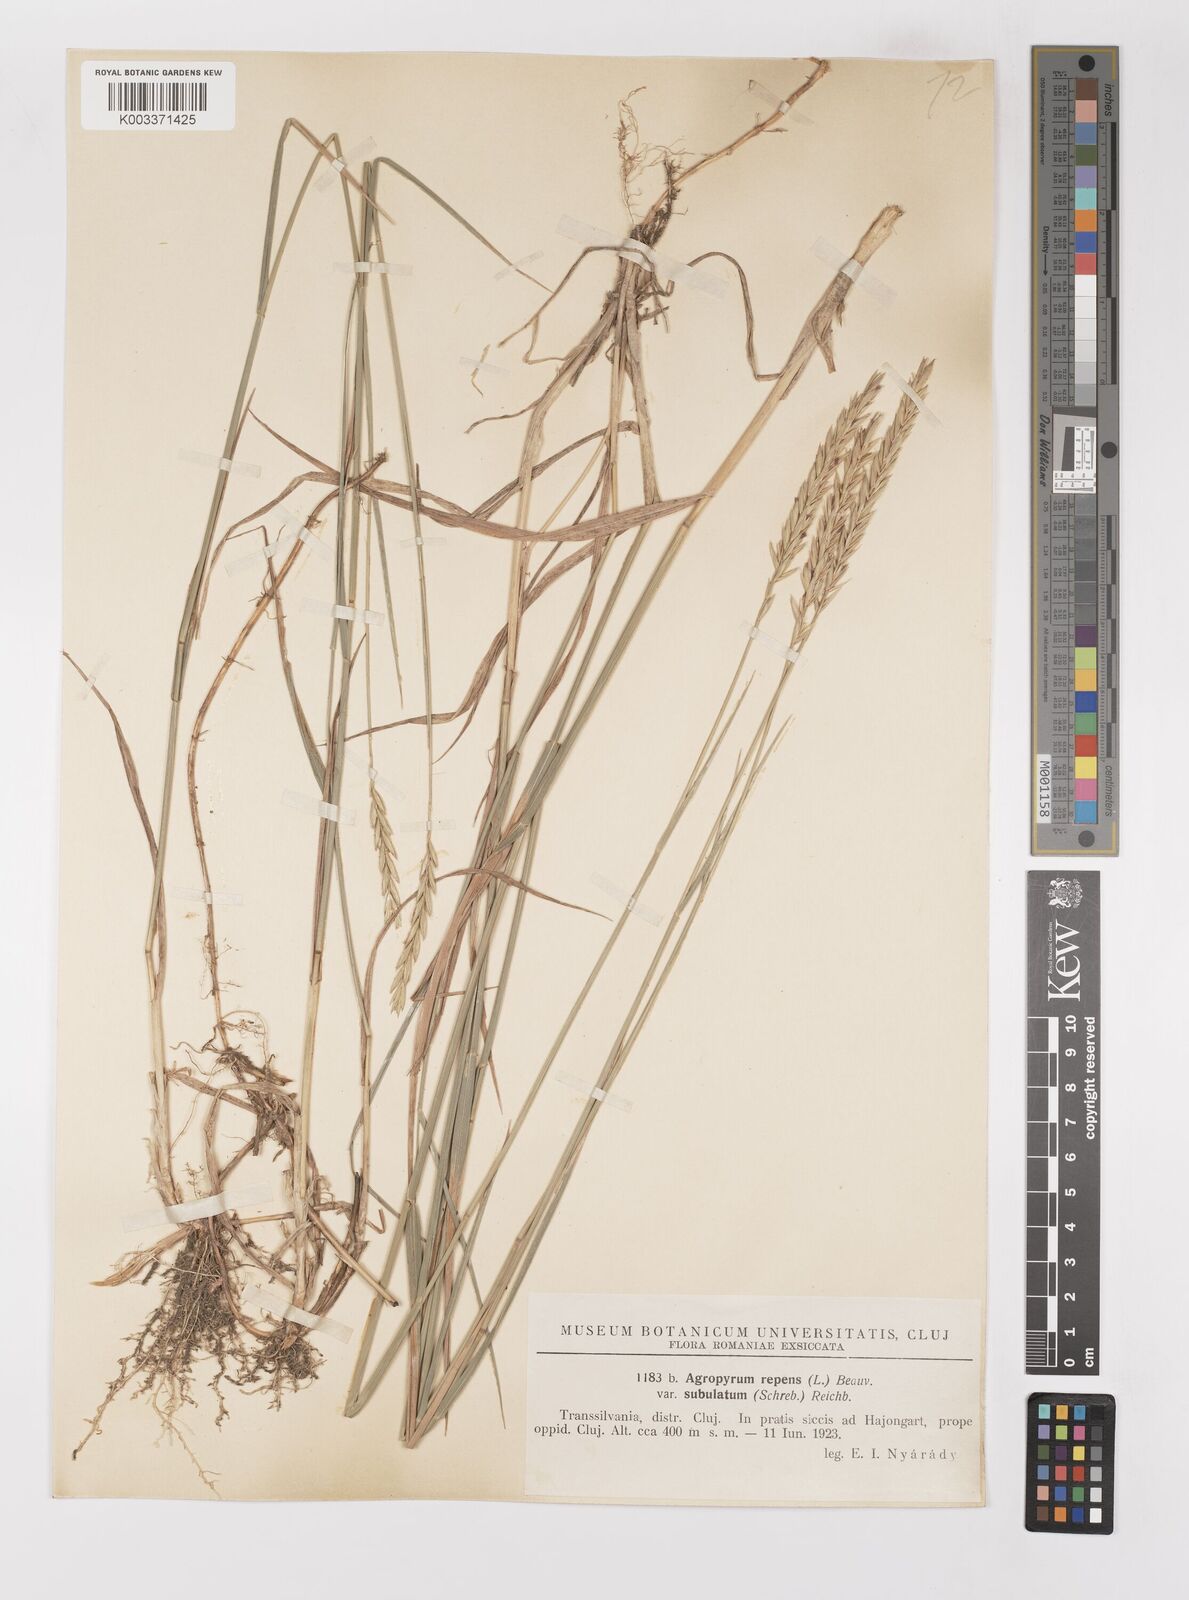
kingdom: Plantae
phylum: Tracheophyta
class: Liliopsida
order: Poales
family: Poaceae
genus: Elymus
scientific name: Elymus repens
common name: Quackgrass
